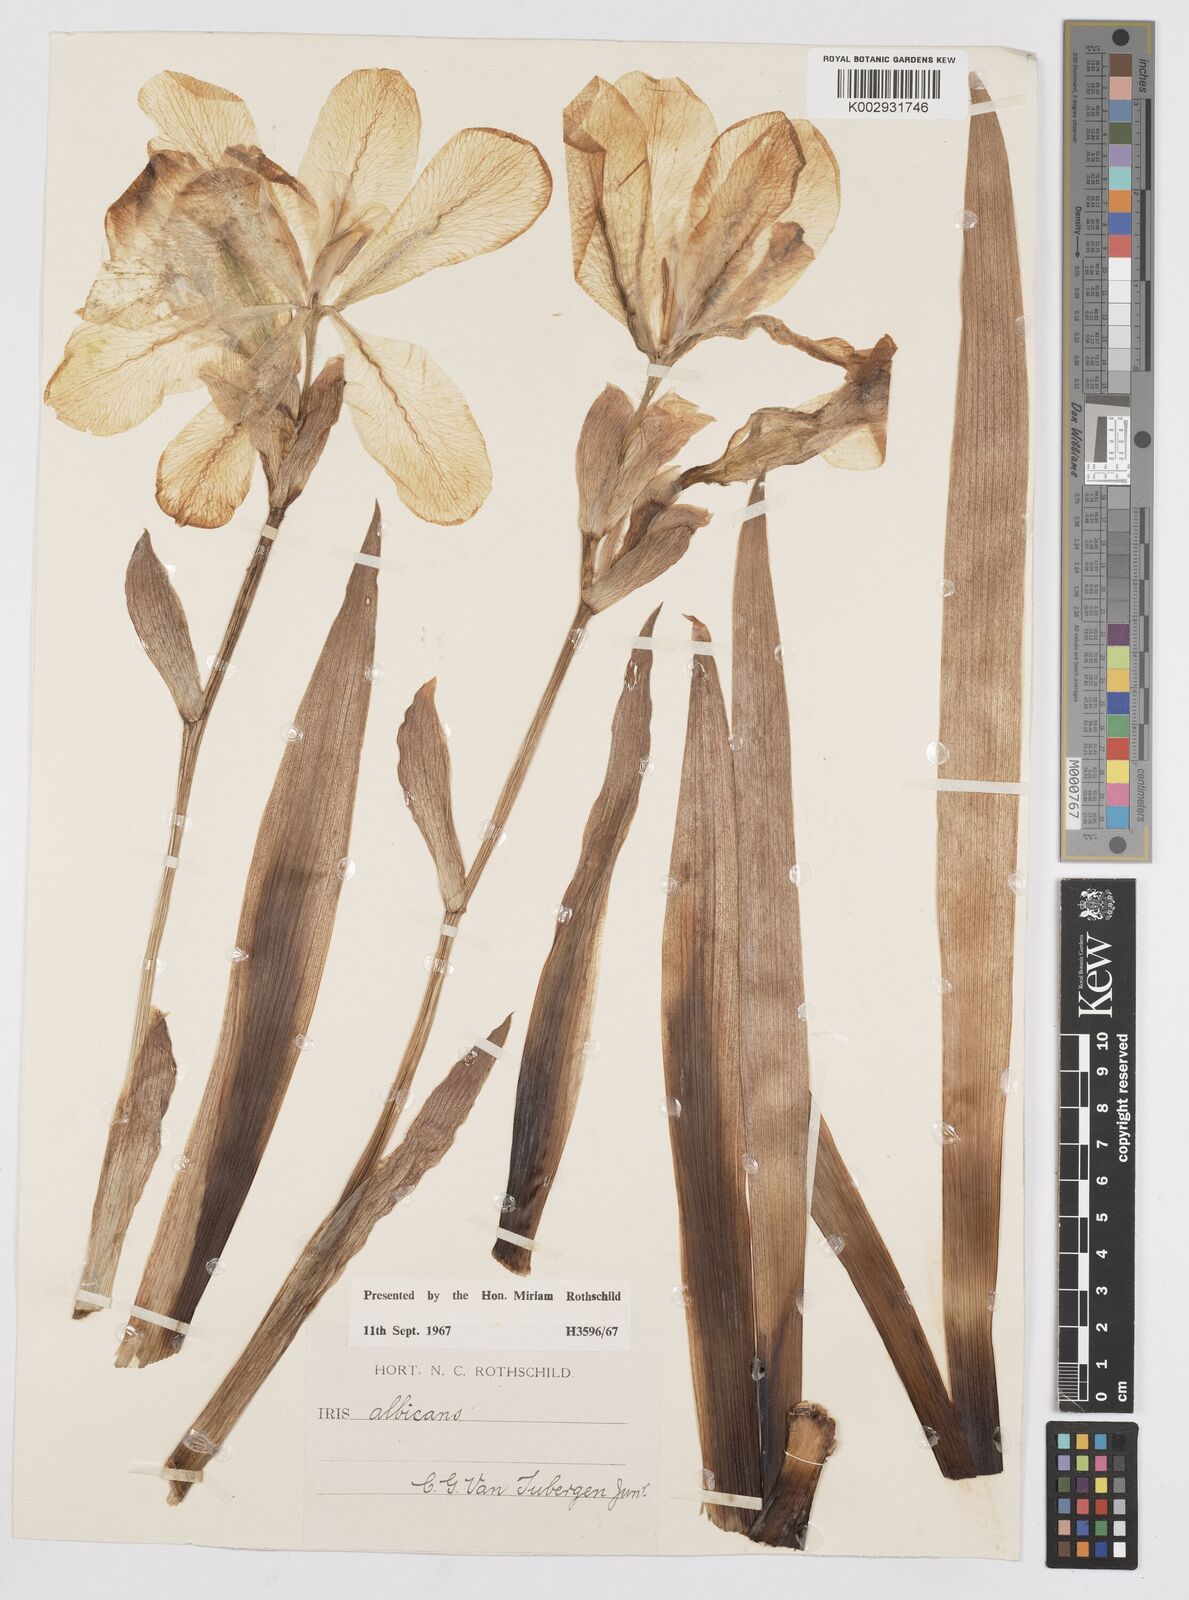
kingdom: Plantae
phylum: Tracheophyta
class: Liliopsida
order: Asparagales
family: Iridaceae
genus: Iris
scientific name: Iris florentina
